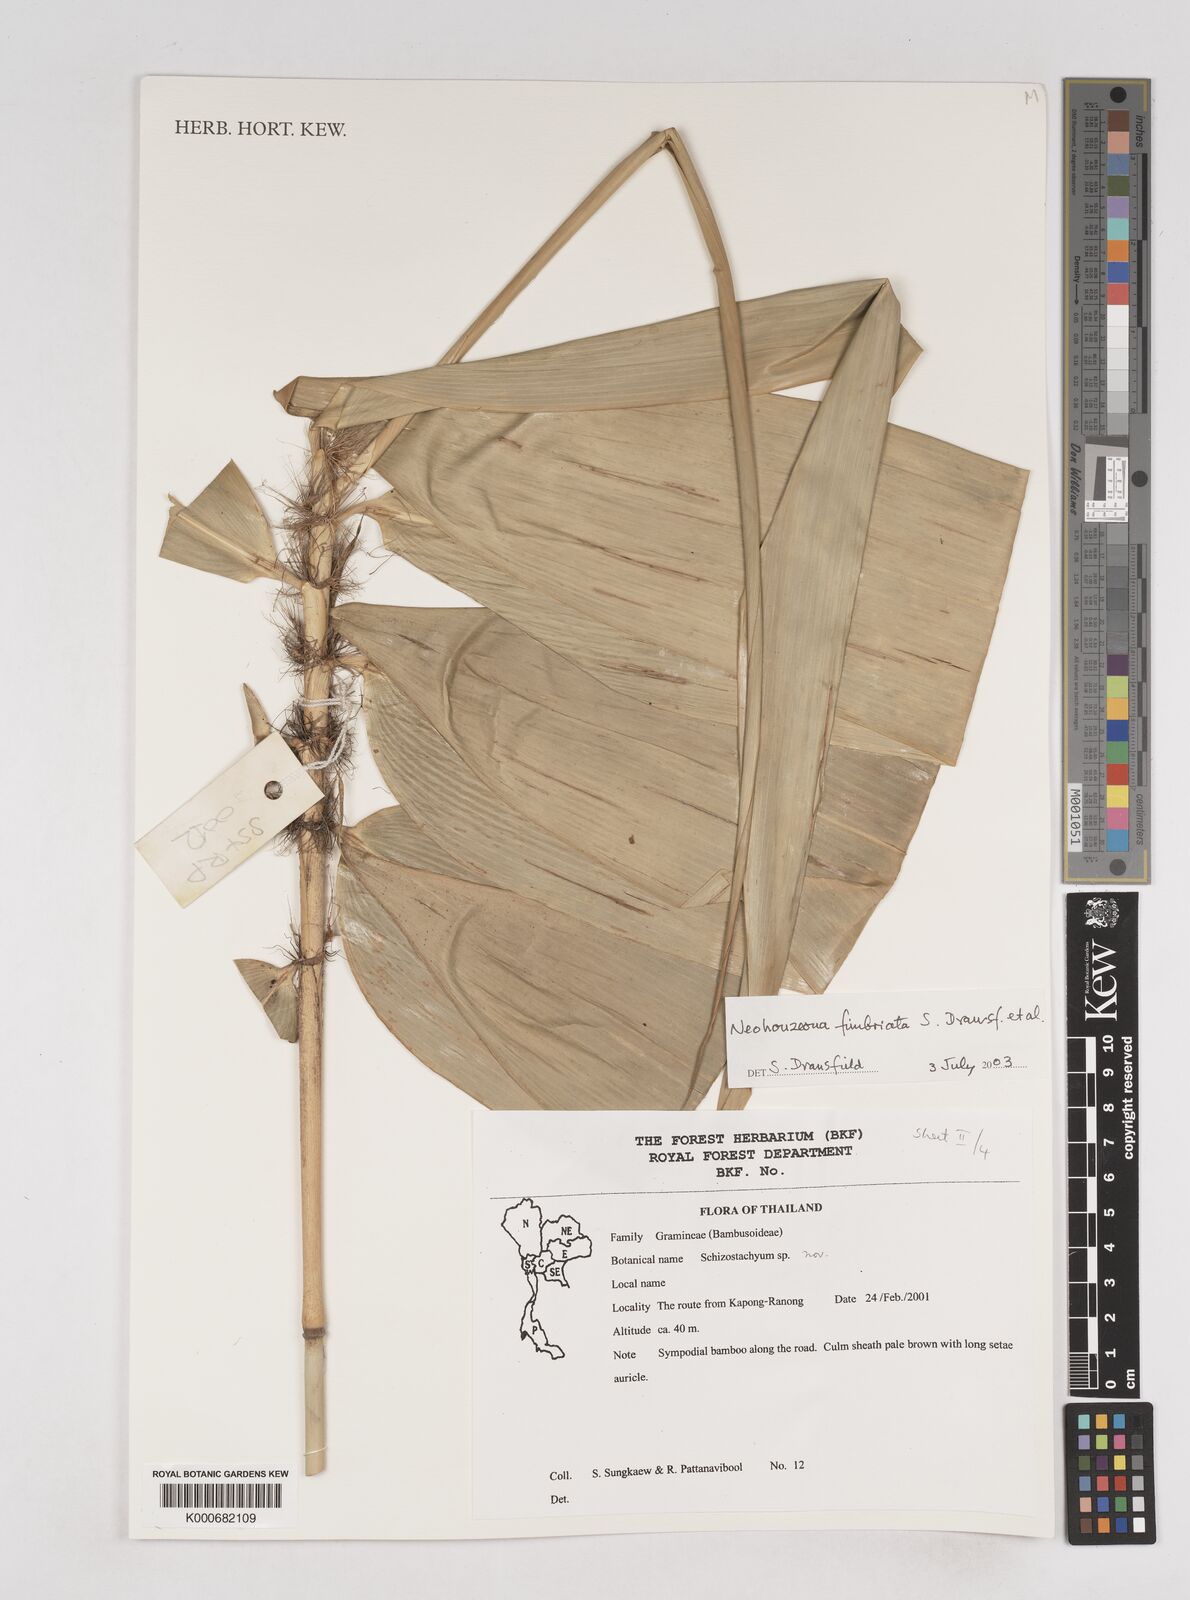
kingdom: Plantae
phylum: Tracheophyta
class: Liliopsida
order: Poales
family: Poaceae
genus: Schizostachyum
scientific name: Schizostachyum
